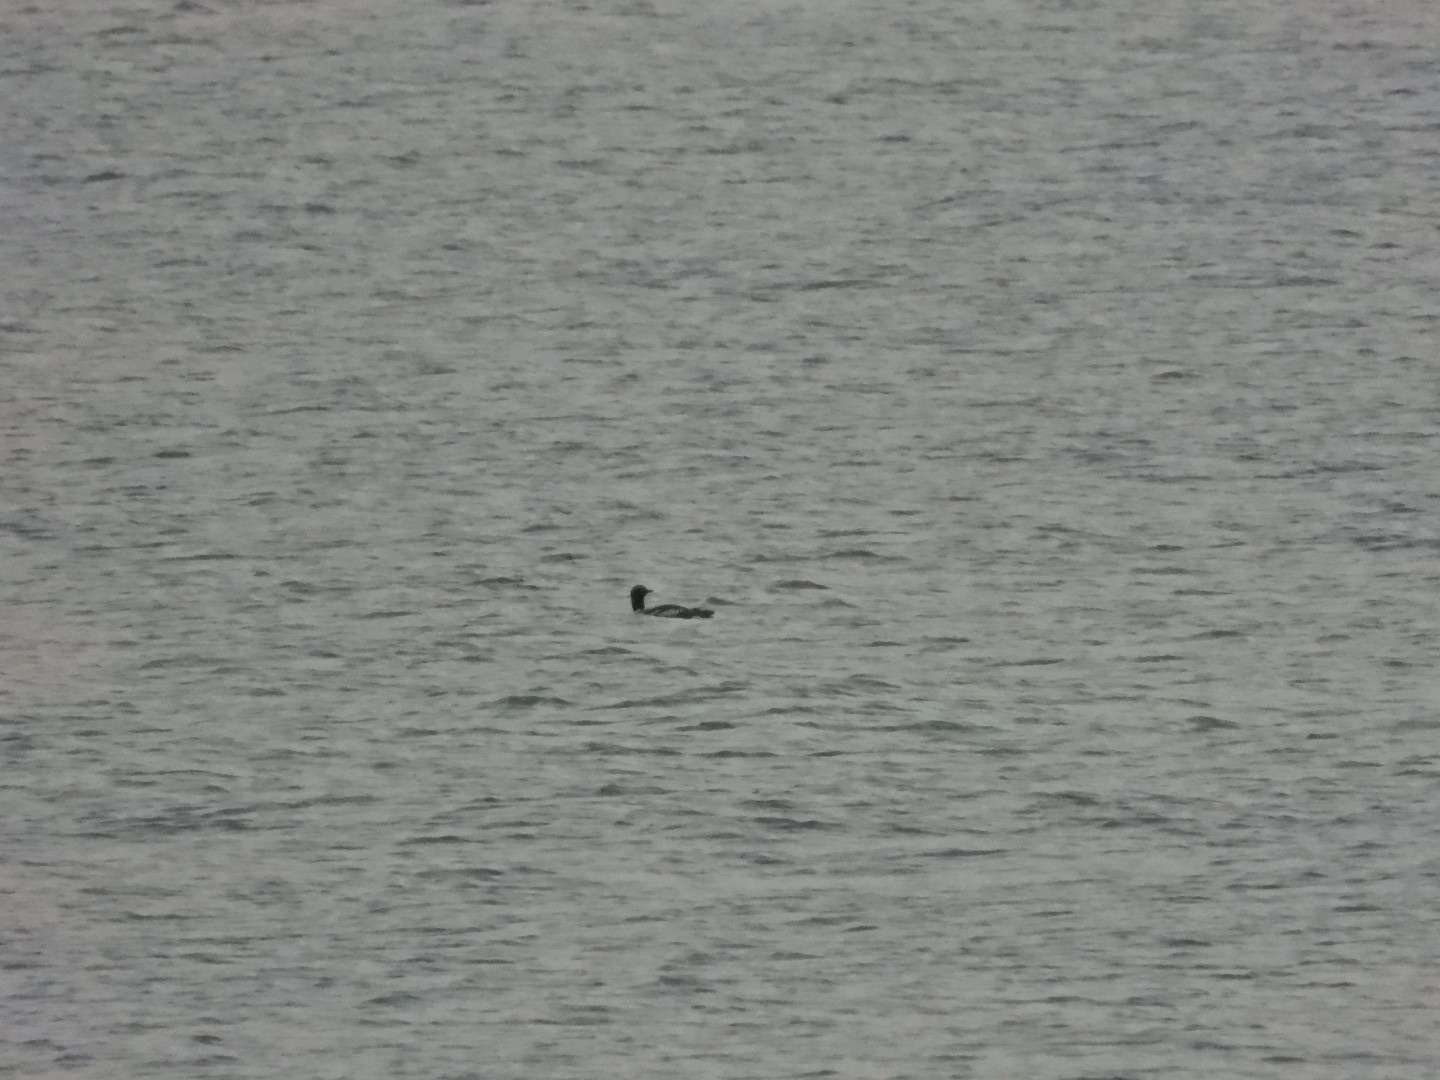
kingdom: Animalia
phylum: Chordata
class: Aves
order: Gaviiformes
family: Gaviidae
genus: Gavia
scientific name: Gavia arctica
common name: Sortstrubet lom
